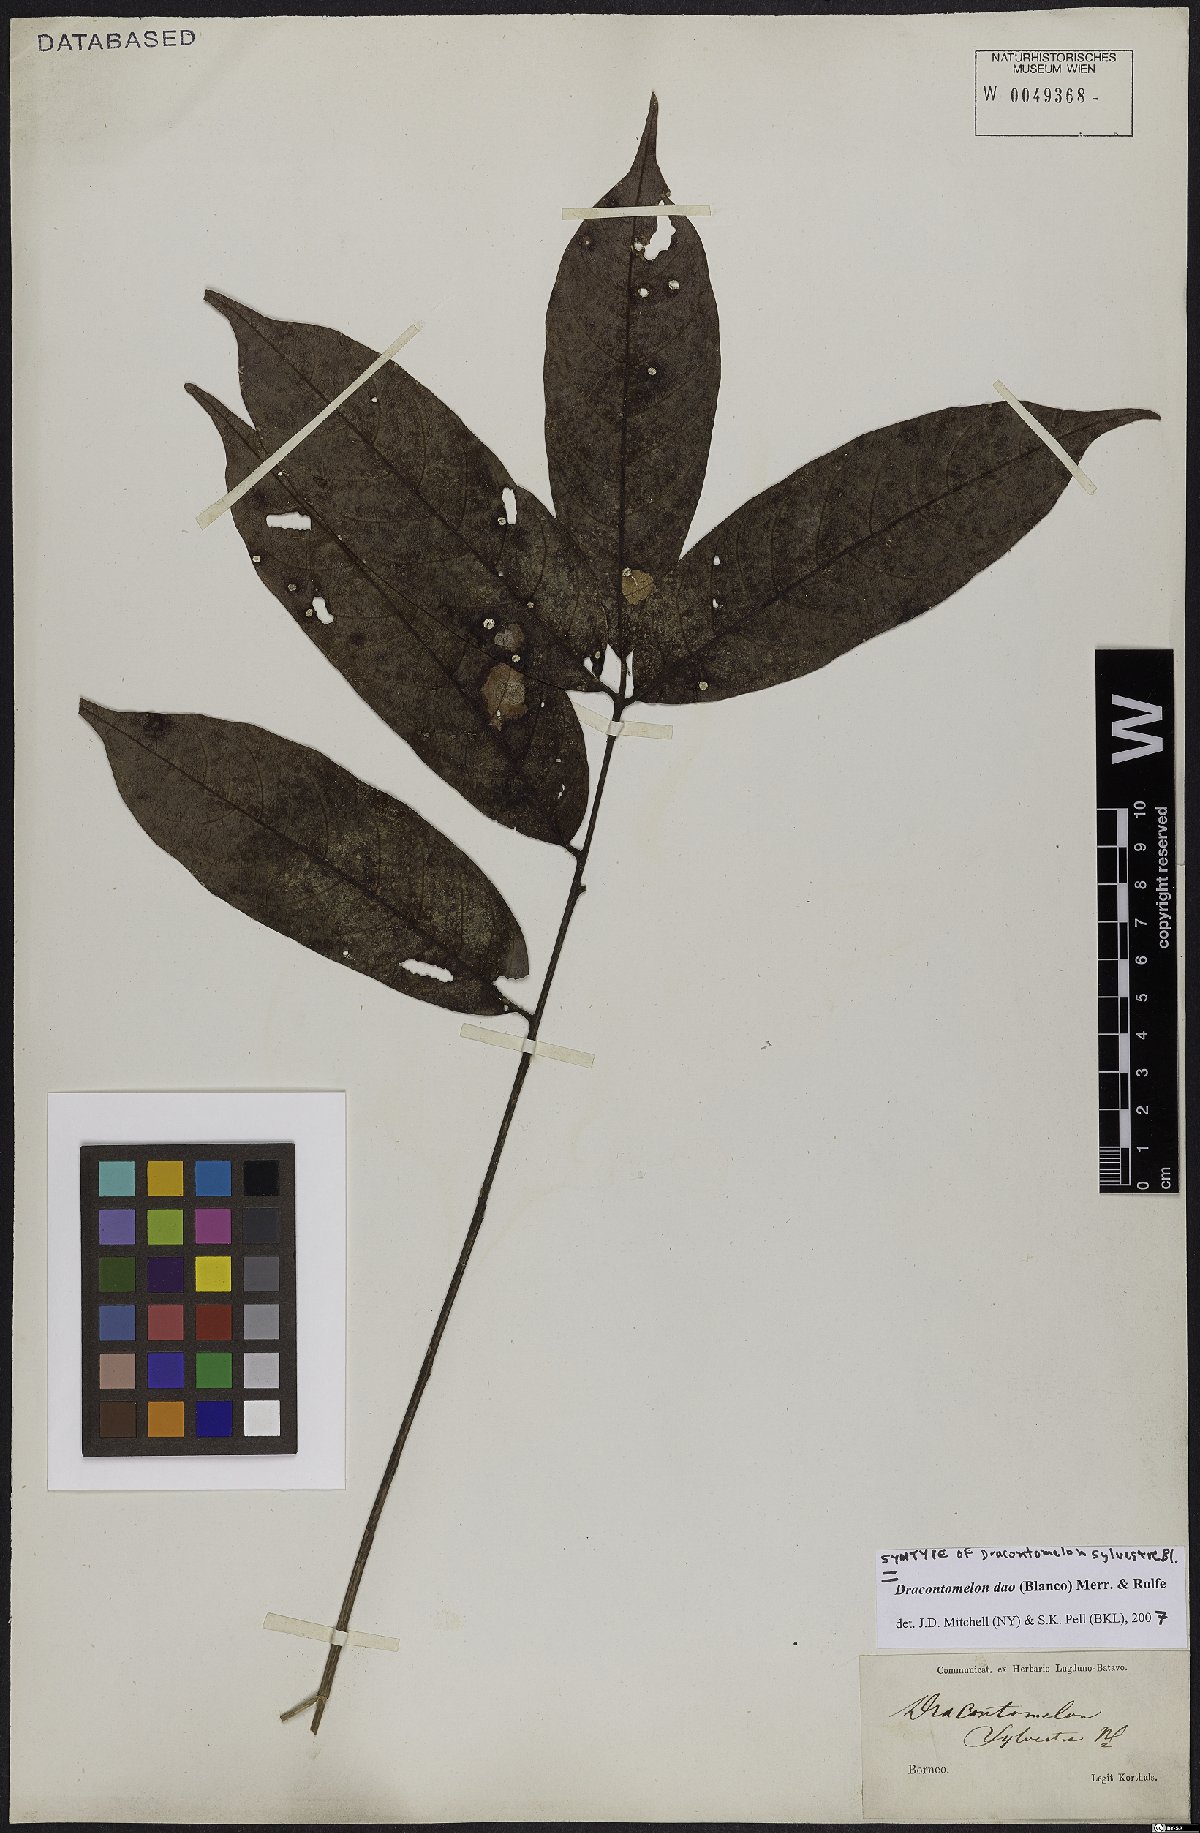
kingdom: Plantae
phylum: Tracheophyta
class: Magnoliopsida
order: Sapindales
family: Anacardiaceae
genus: Dracontomelon
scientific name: Dracontomelon dao
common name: Argus pheasant-tree
